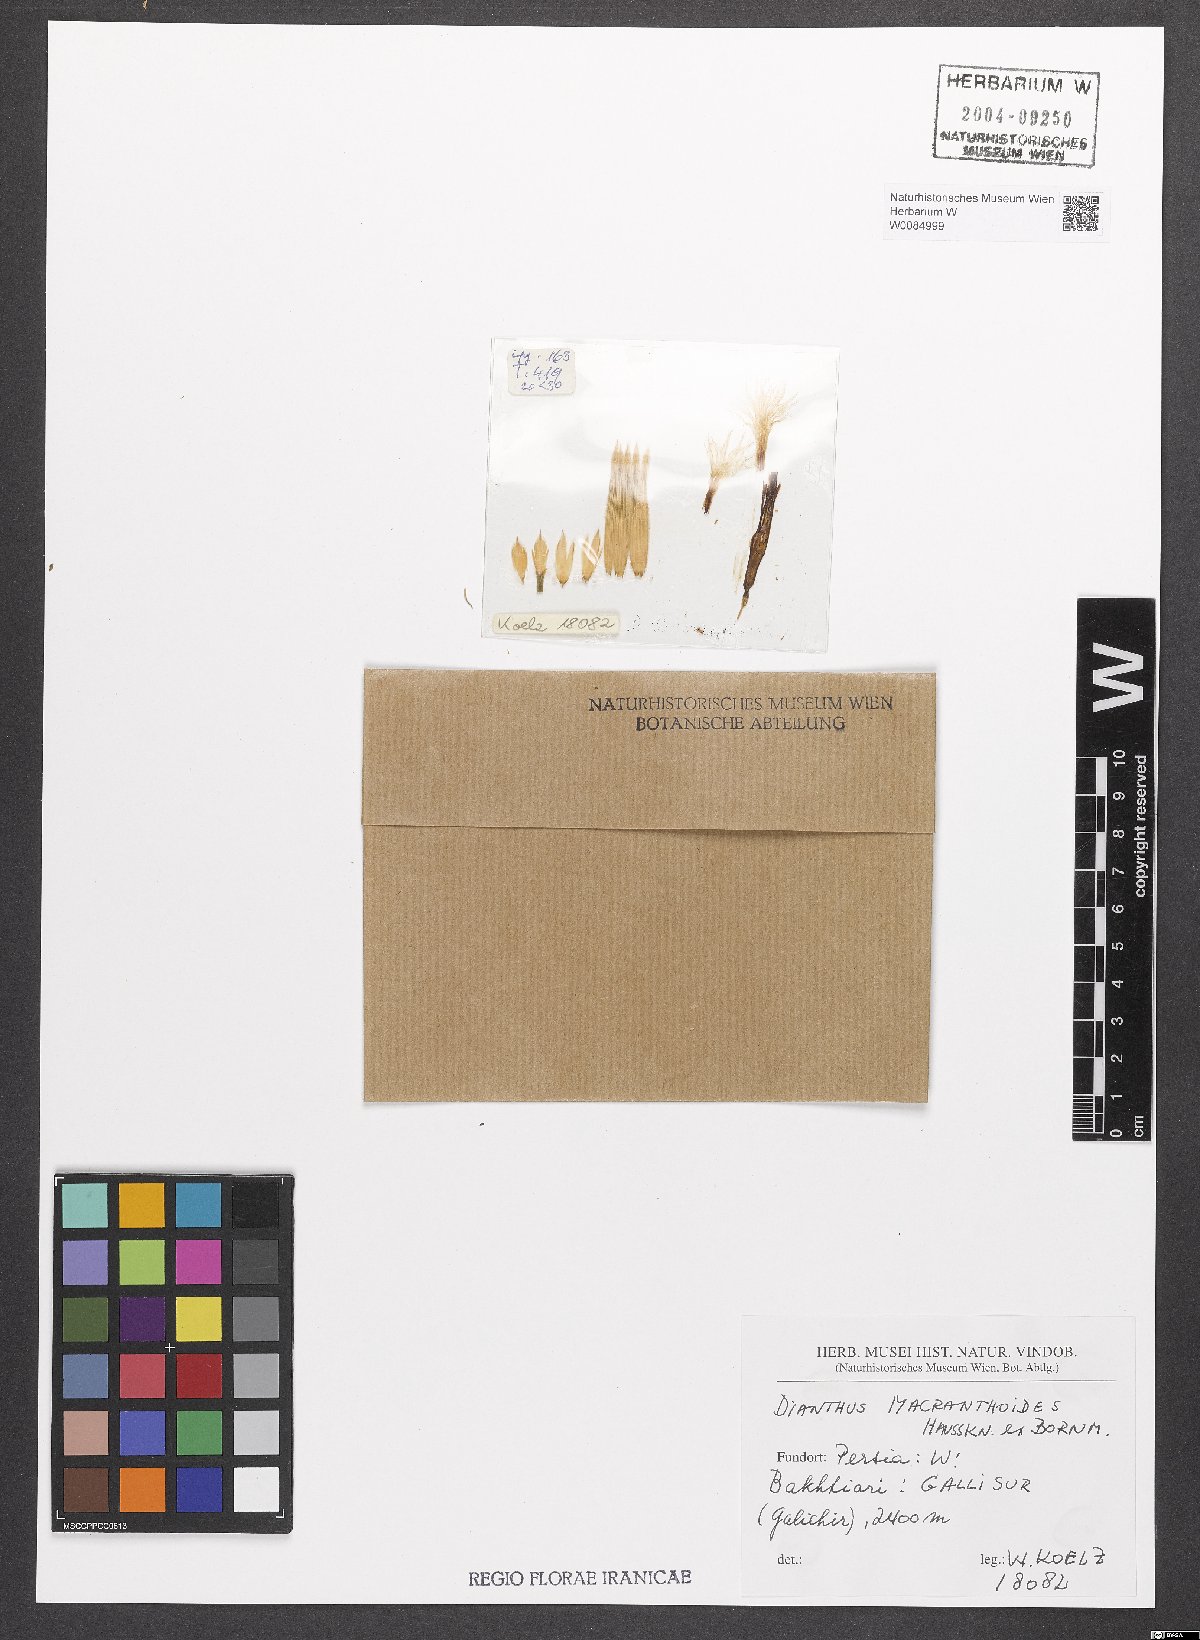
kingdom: Plantae
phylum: Tracheophyta
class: Magnoliopsida
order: Caryophyllales
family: Caryophyllaceae
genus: Dianthus
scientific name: Dianthus macranthoides
